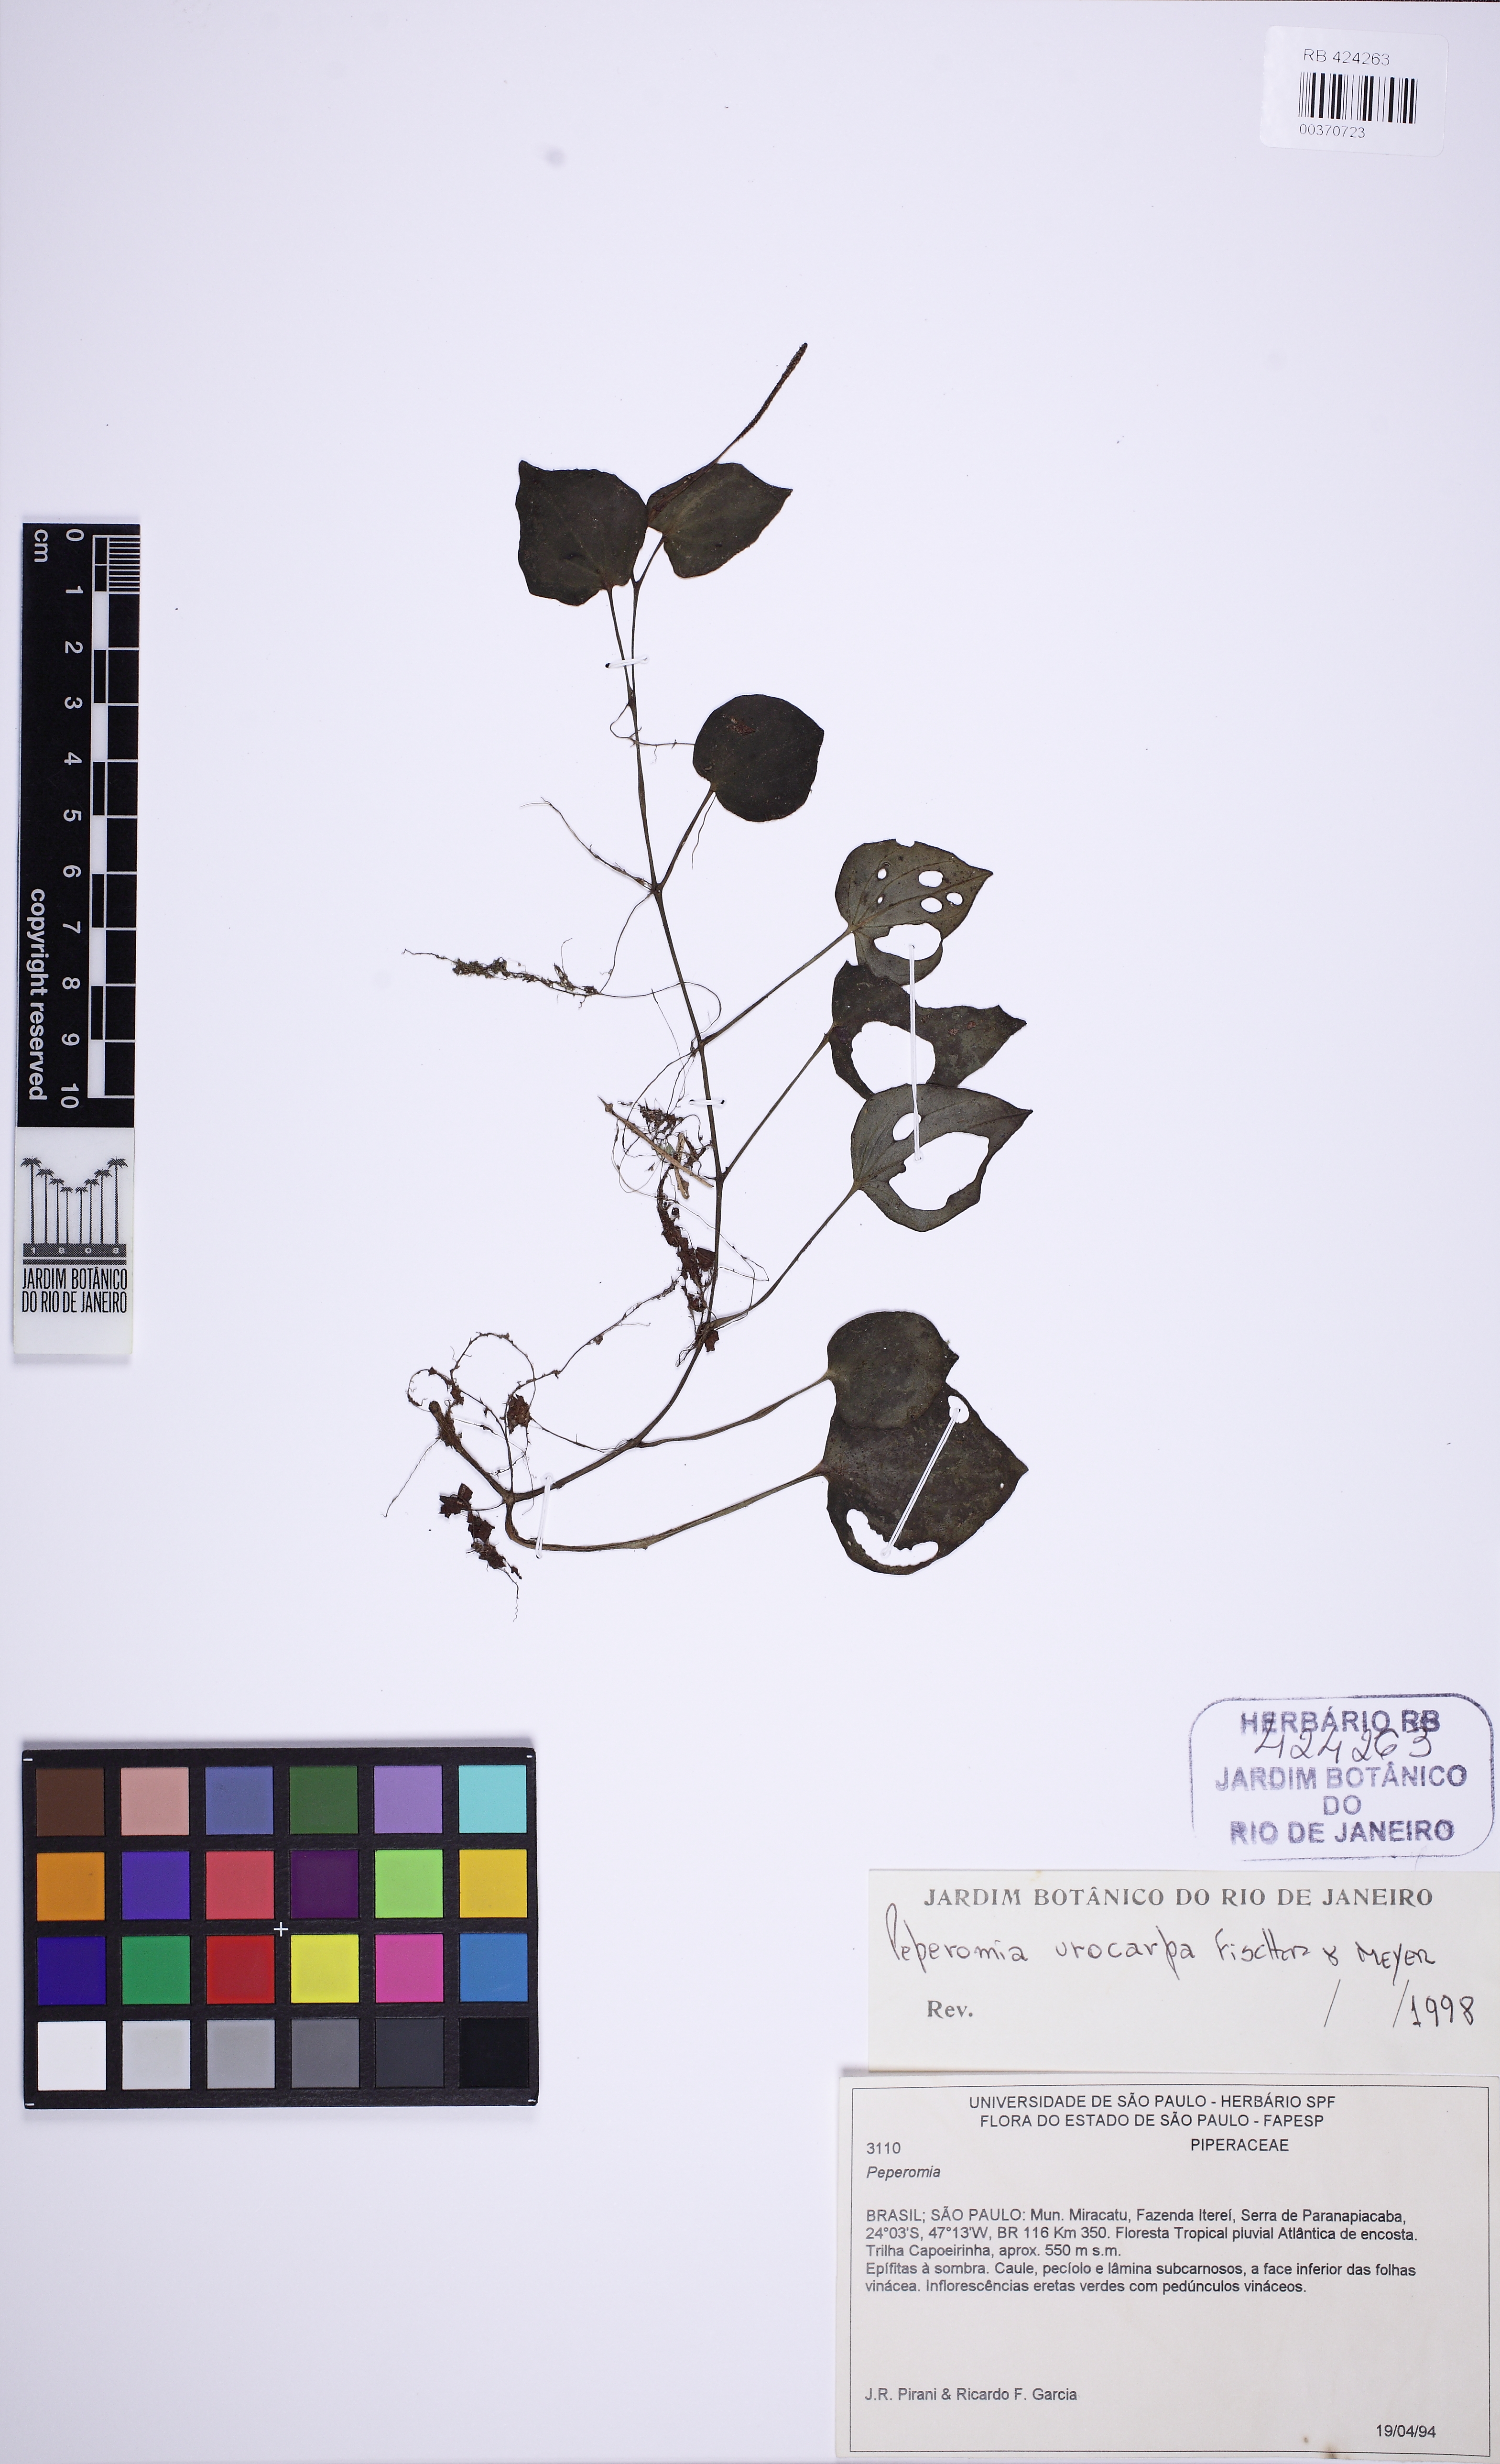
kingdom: Plantae
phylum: Tracheophyta
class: Magnoliopsida
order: Piperales
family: Piperaceae
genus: Peperomia
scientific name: Peperomia urocarpa
